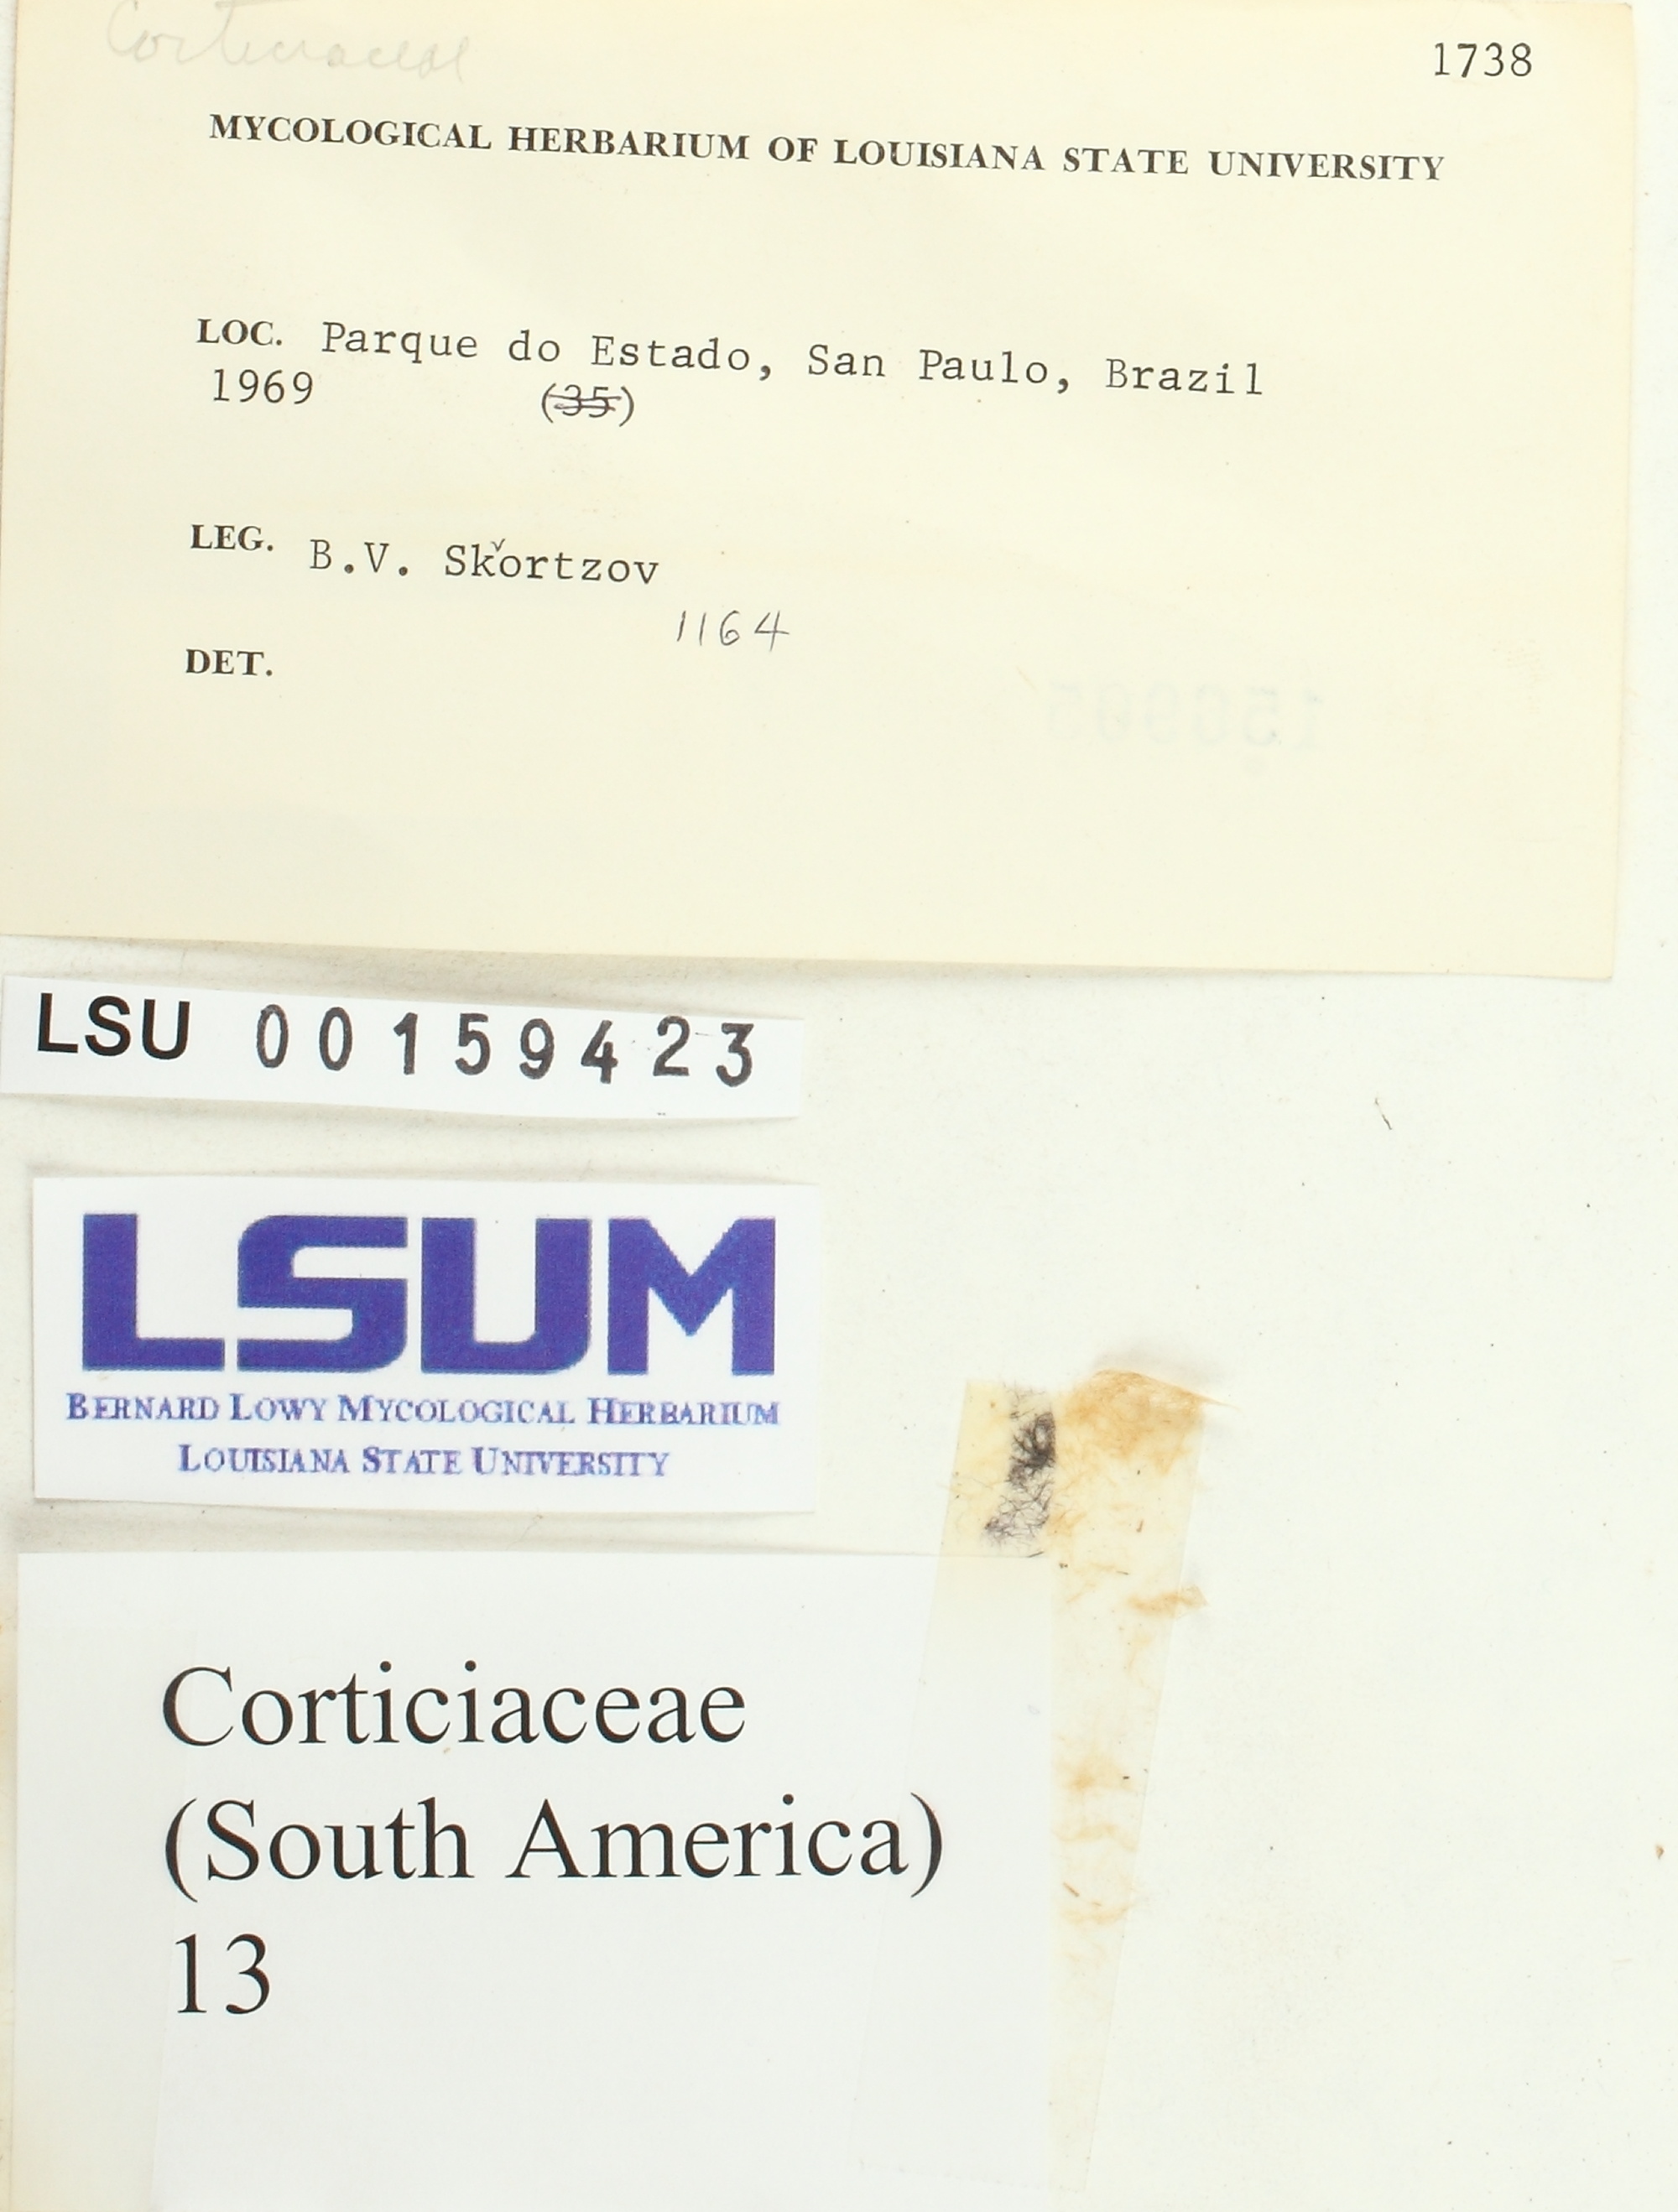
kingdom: Fungi
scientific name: Fungi
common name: Fungi
